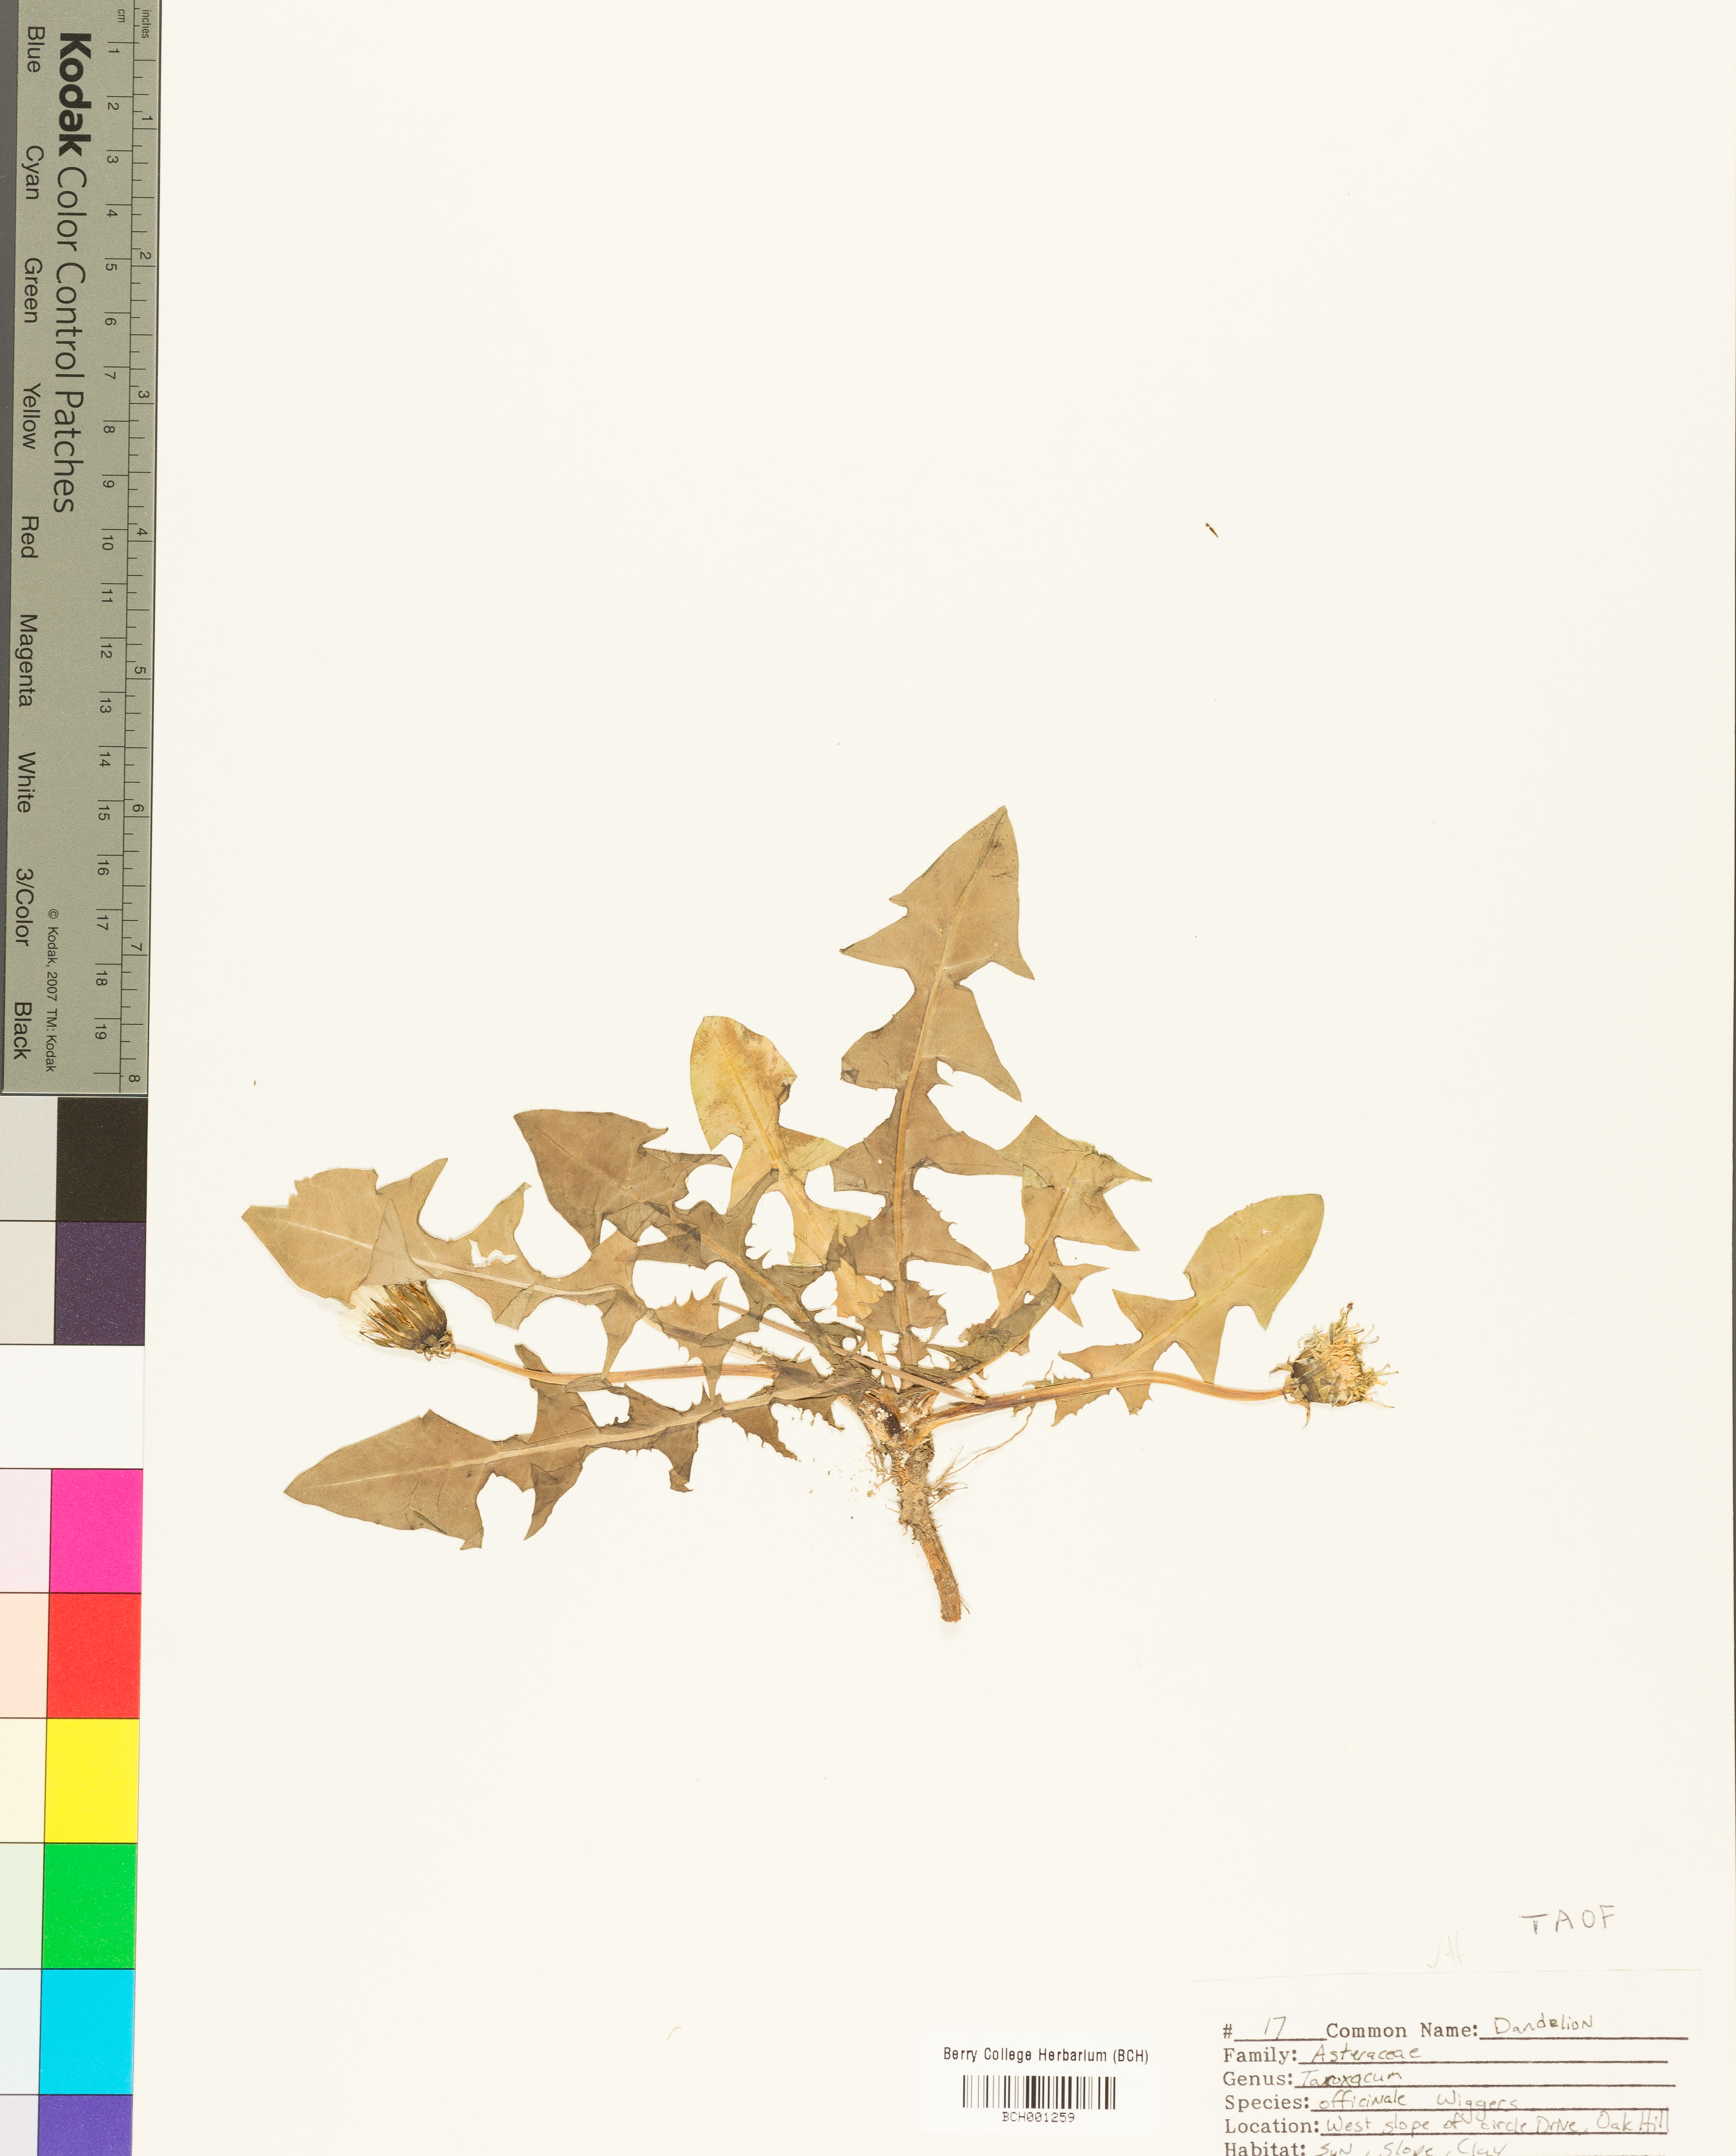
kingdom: Plantae
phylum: Tracheophyta
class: Magnoliopsida
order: Asterales
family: Asteraceae
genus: Taraxacum
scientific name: Taraxacum officinale
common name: Common dandelion
